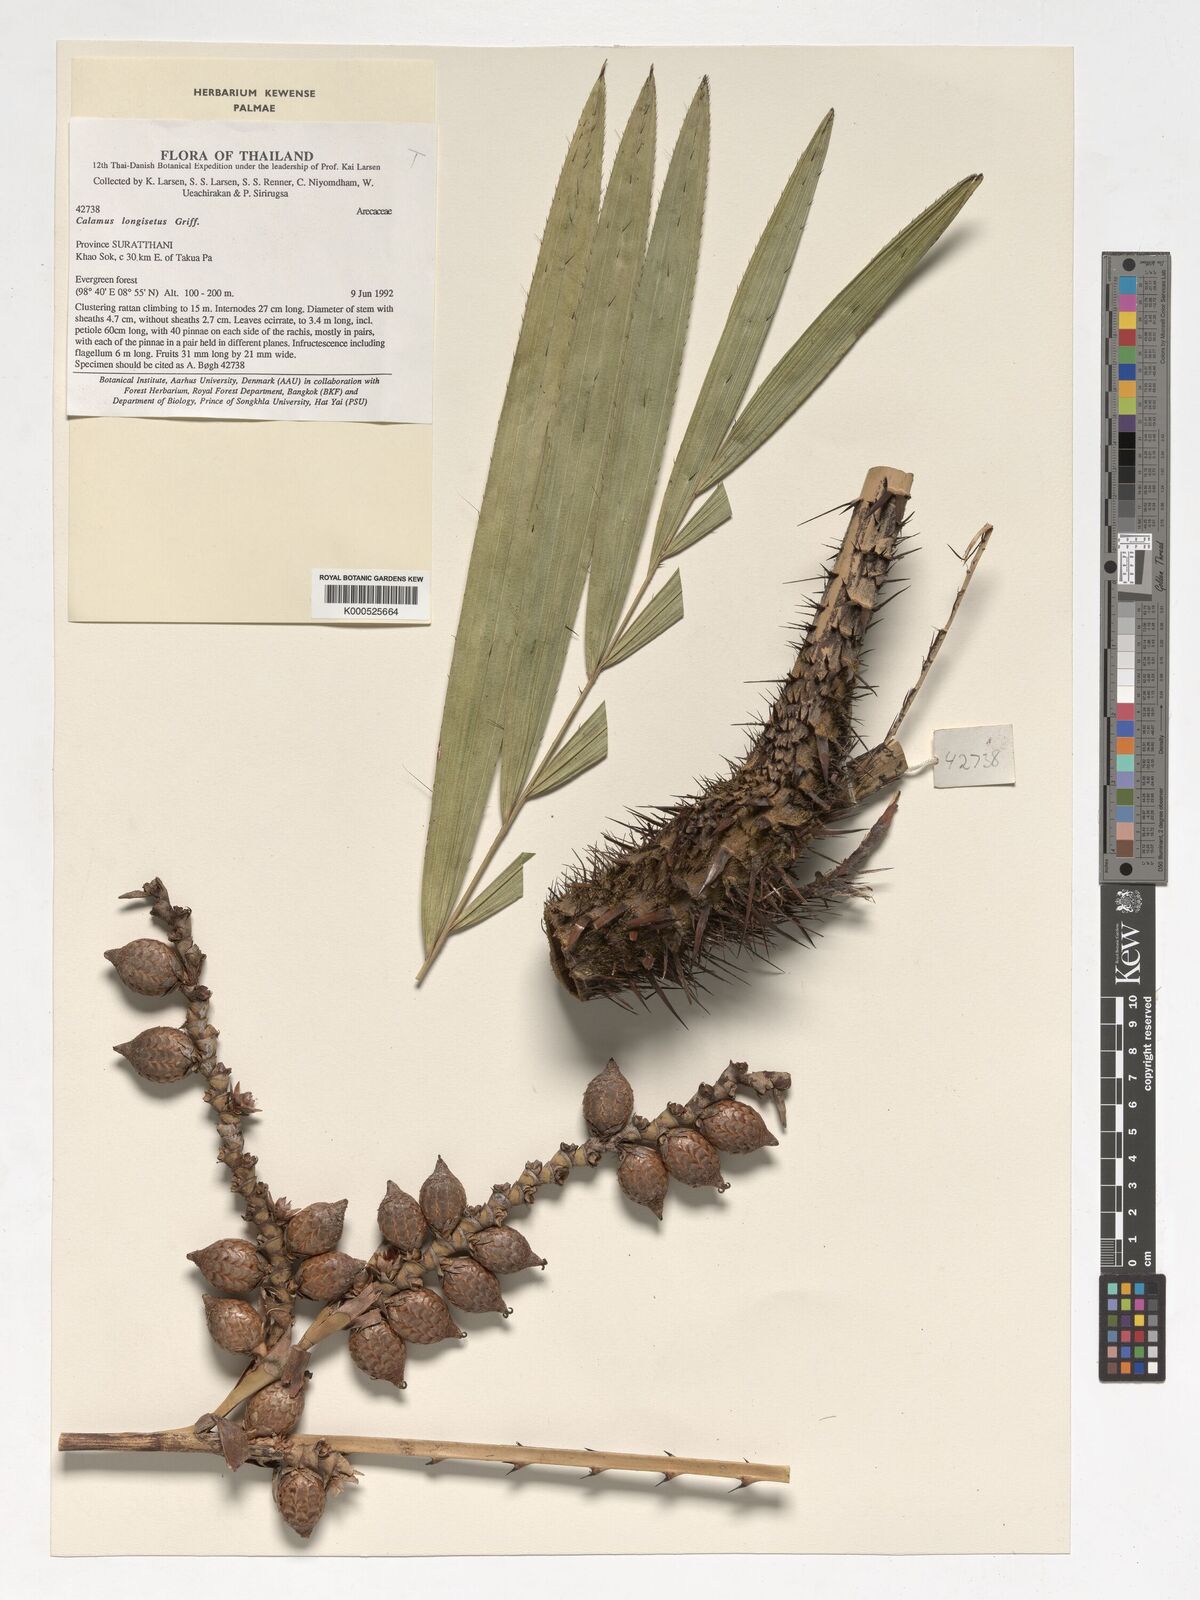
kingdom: Plantae
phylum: Tracheophyta
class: Liliopsida
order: Arecales
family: Arecaceae
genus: Calamus
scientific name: Calamus longisetus
